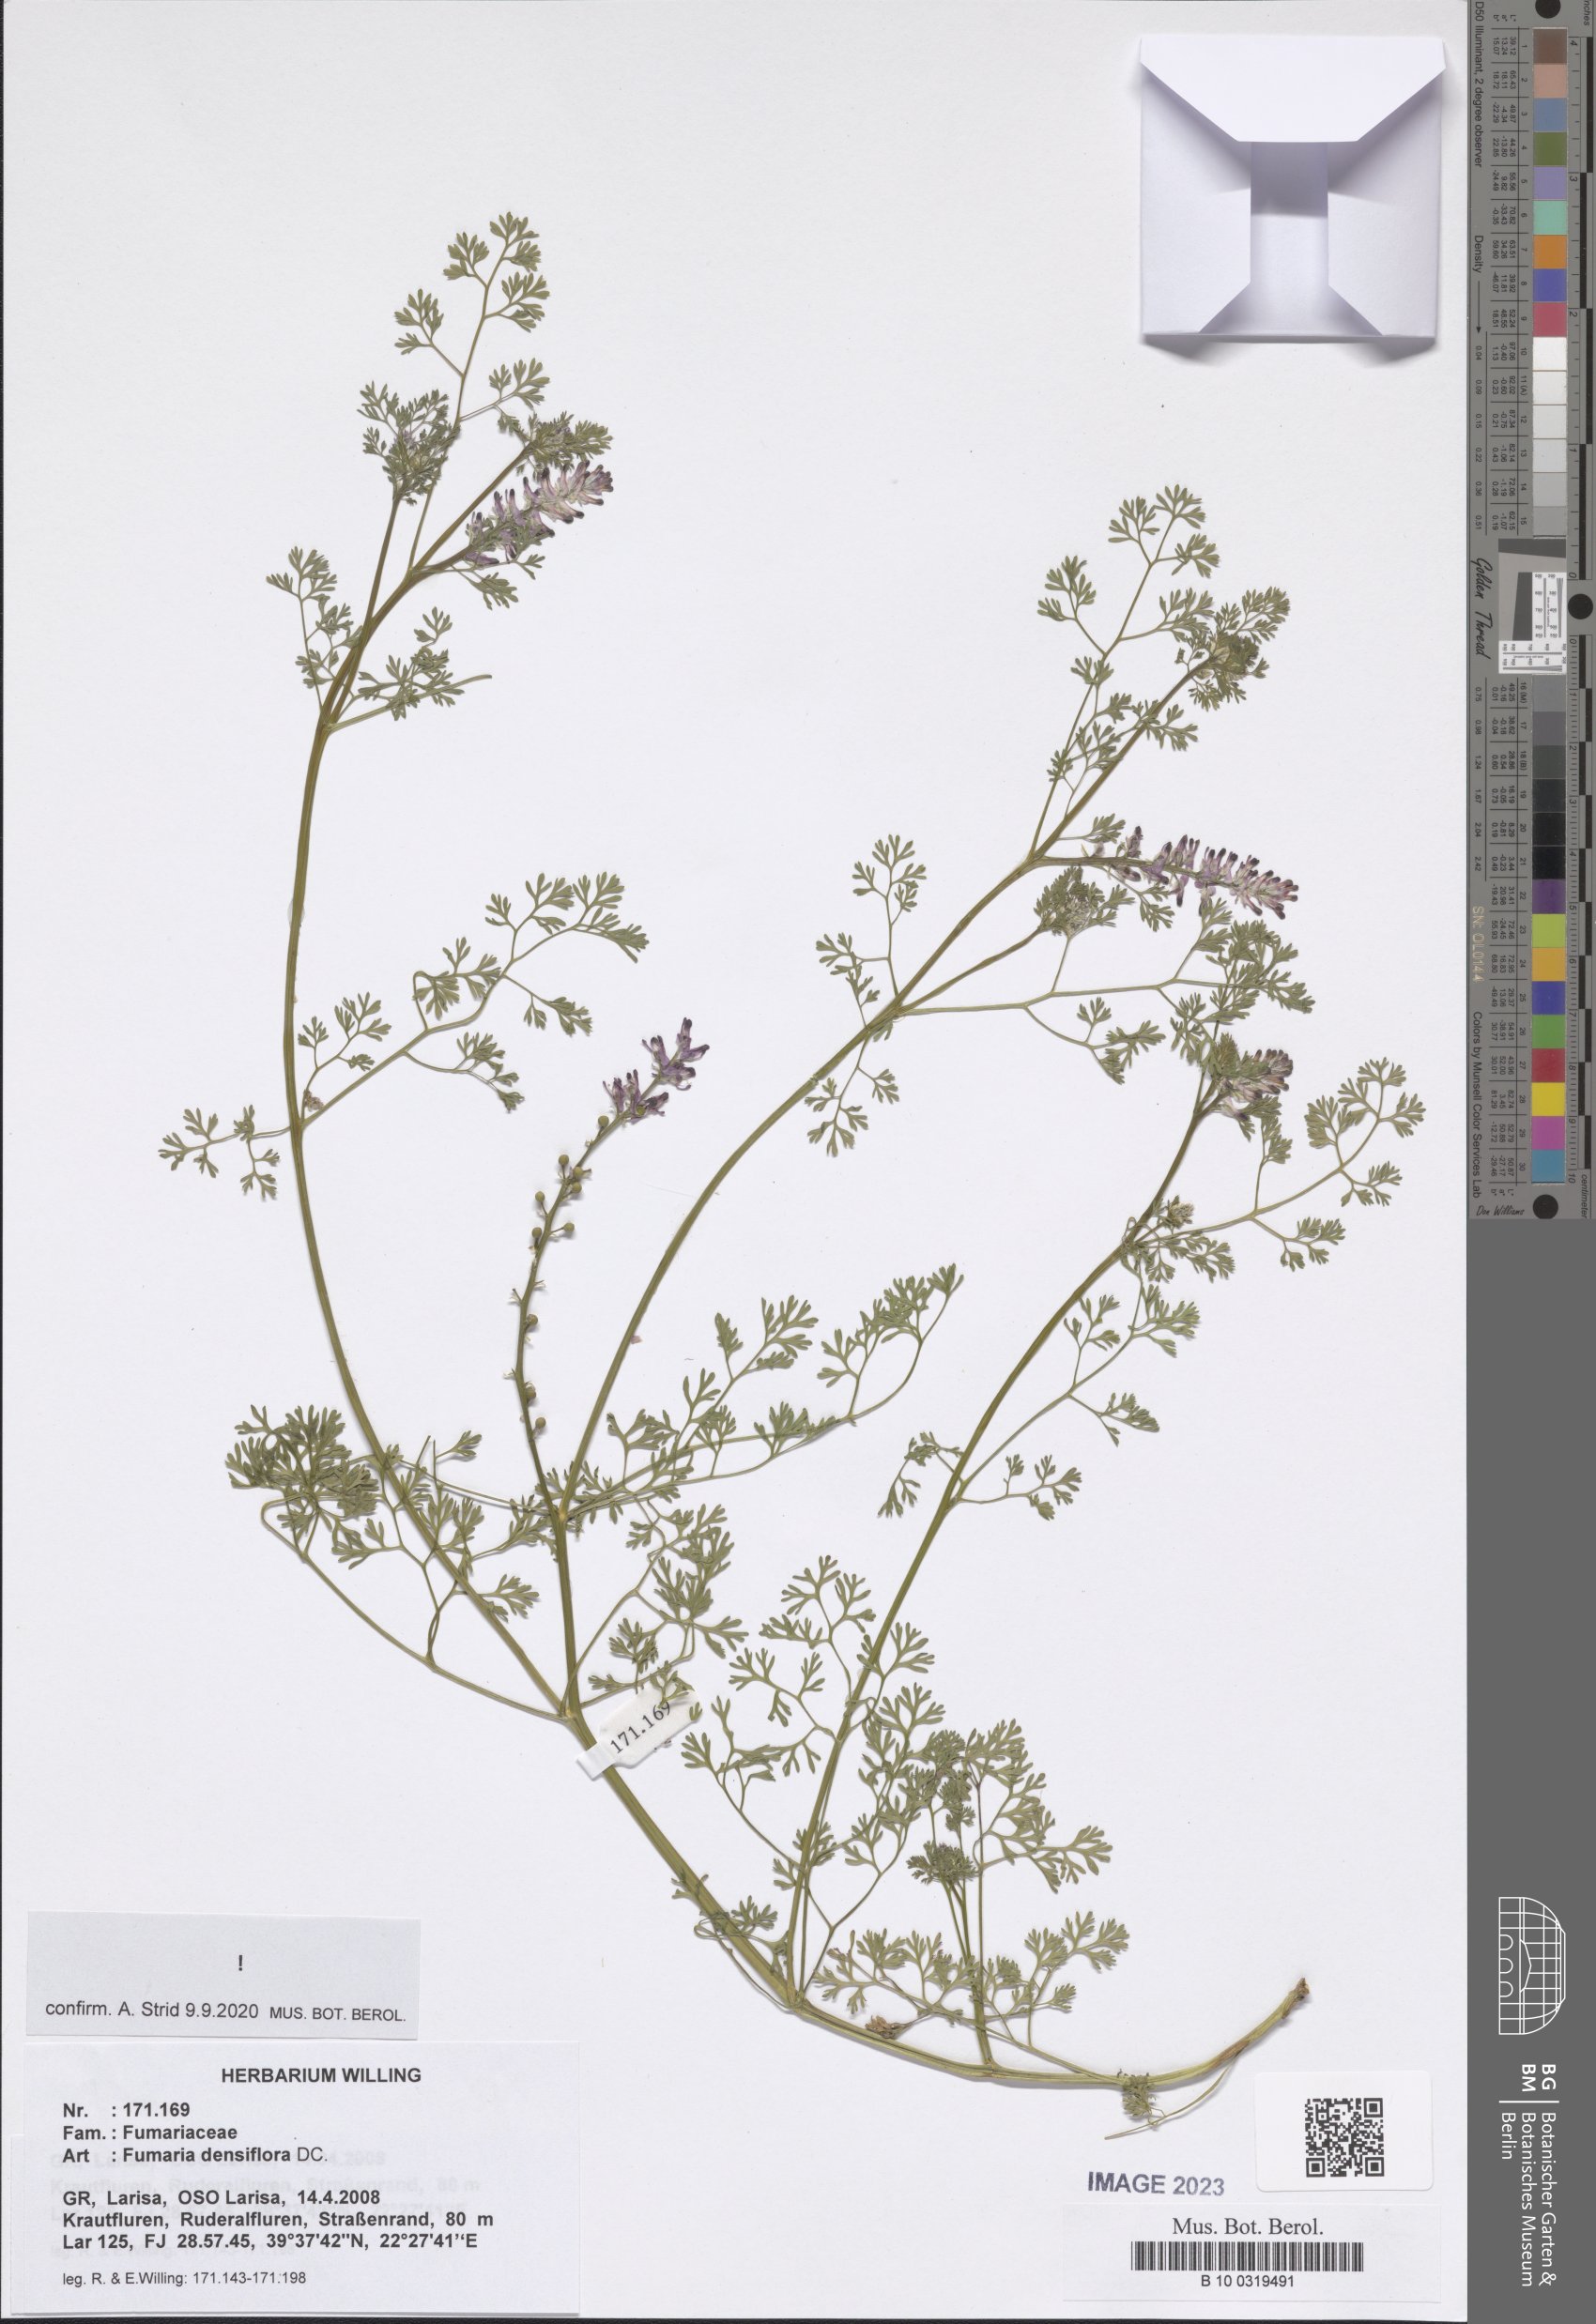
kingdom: Plantae
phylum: Tracheophyta
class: Magnoliopsida
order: Ranunculales
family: Papaveraceae
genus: Fumaria
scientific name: Fumaria densiflora
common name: Dense-flowered fumitory
